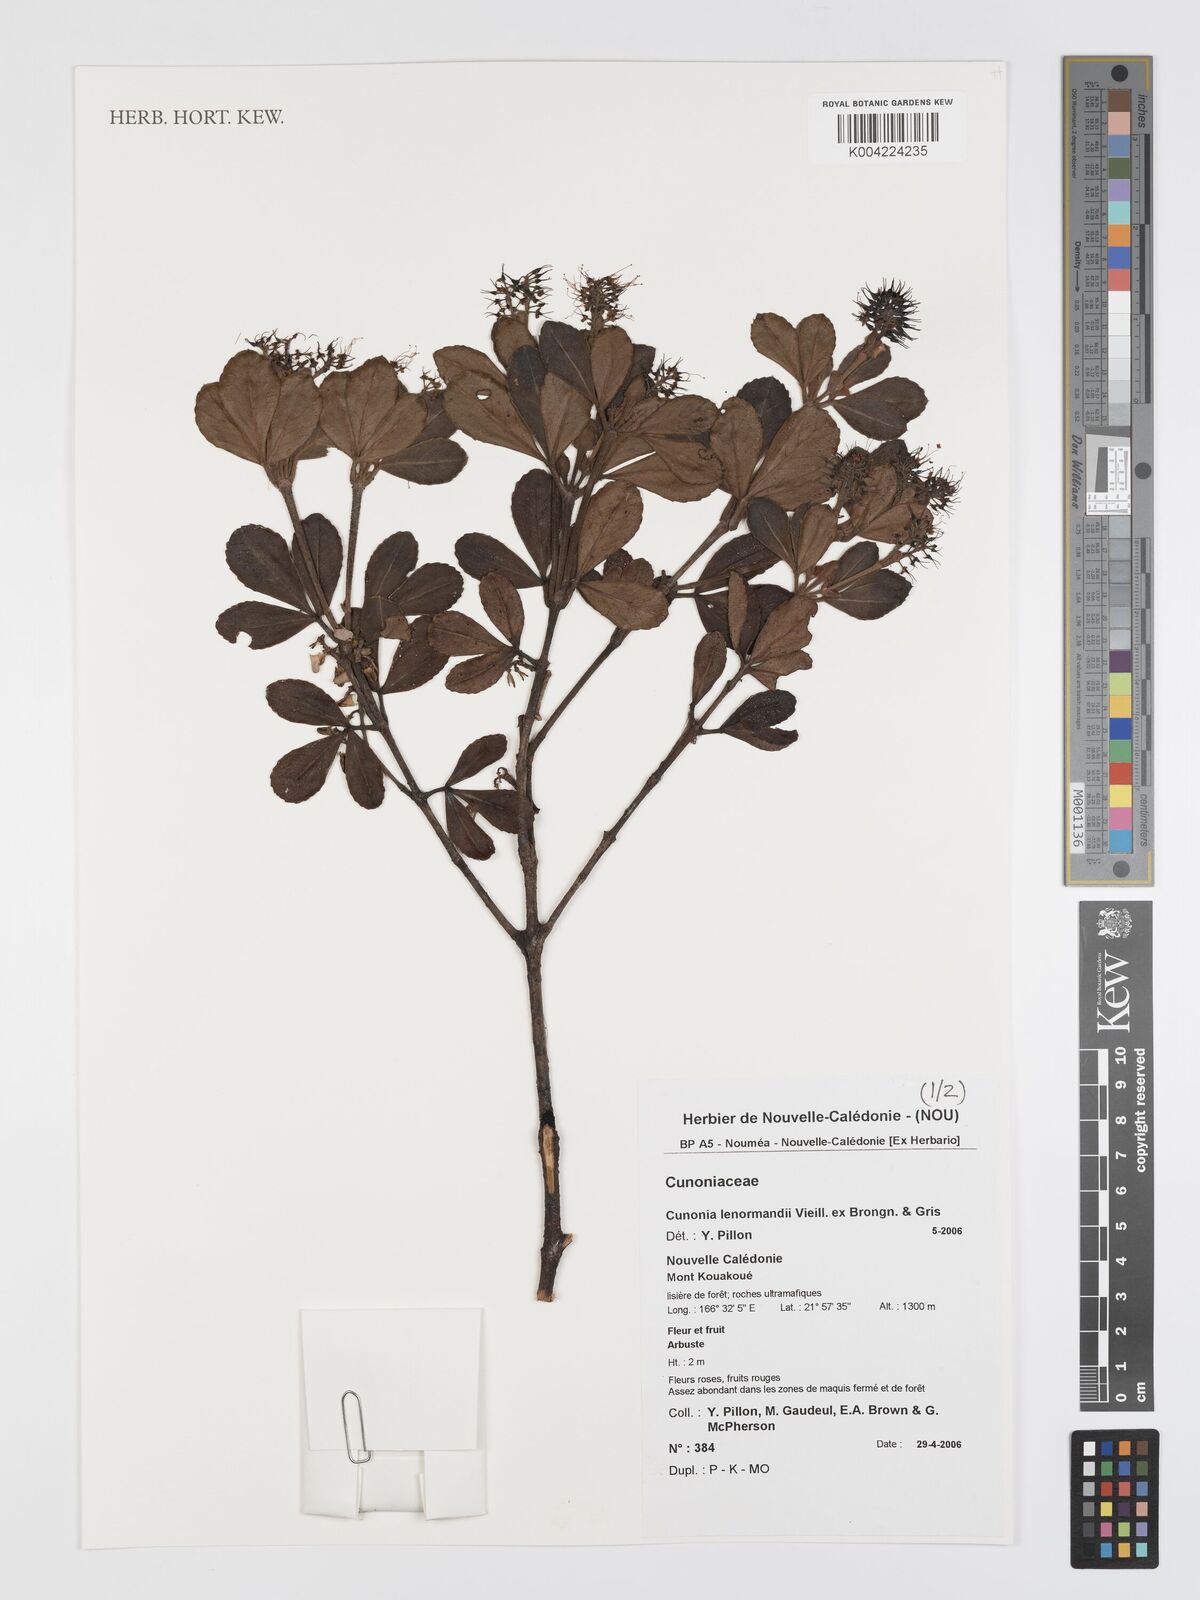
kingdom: Plantae
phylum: Tracheophyta
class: Magnoliopsida
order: Oxalidales
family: Cunoniaceae
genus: Cunonia
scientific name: Cunonia lenormandii
